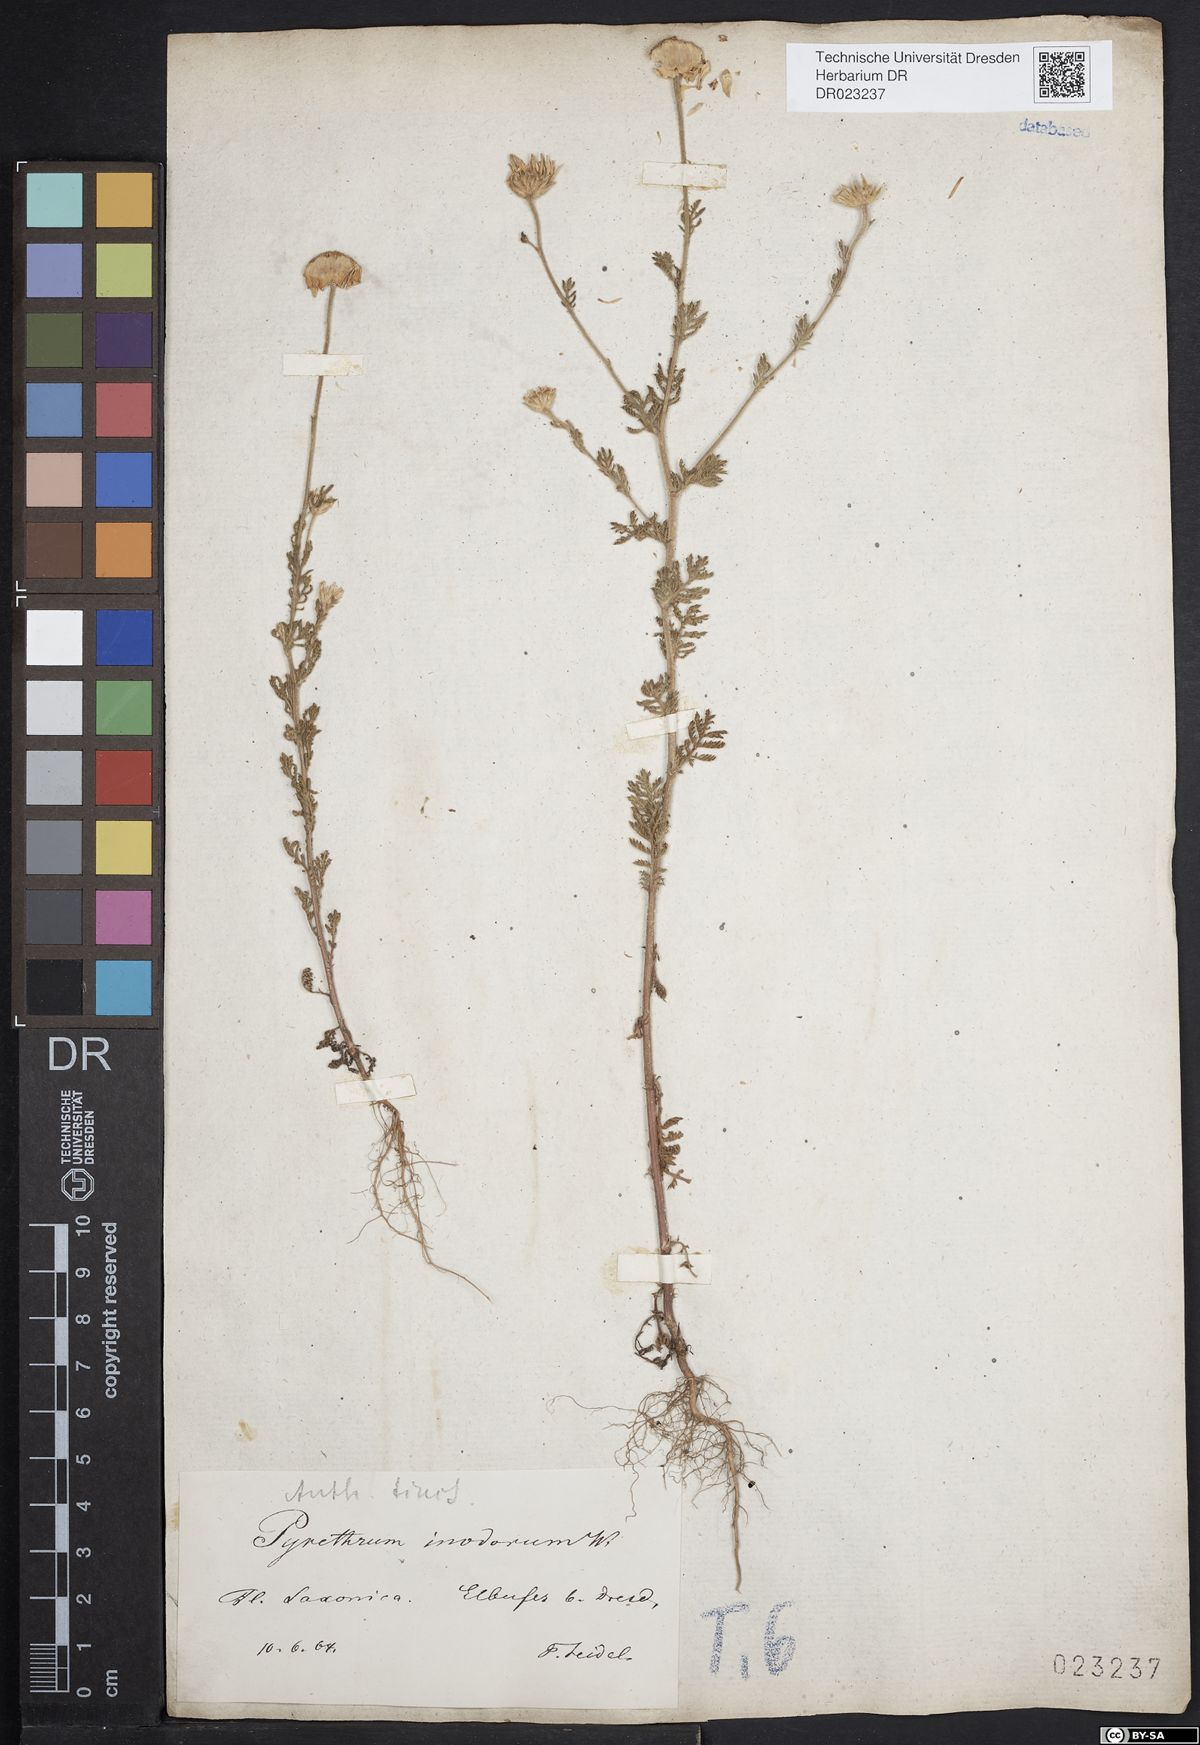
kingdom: Plantae
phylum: Tracheophyta
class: Magnoliopsida
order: Asterales
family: Asteraceae
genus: Cota
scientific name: Cota tinctoria
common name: Golden chamomile
